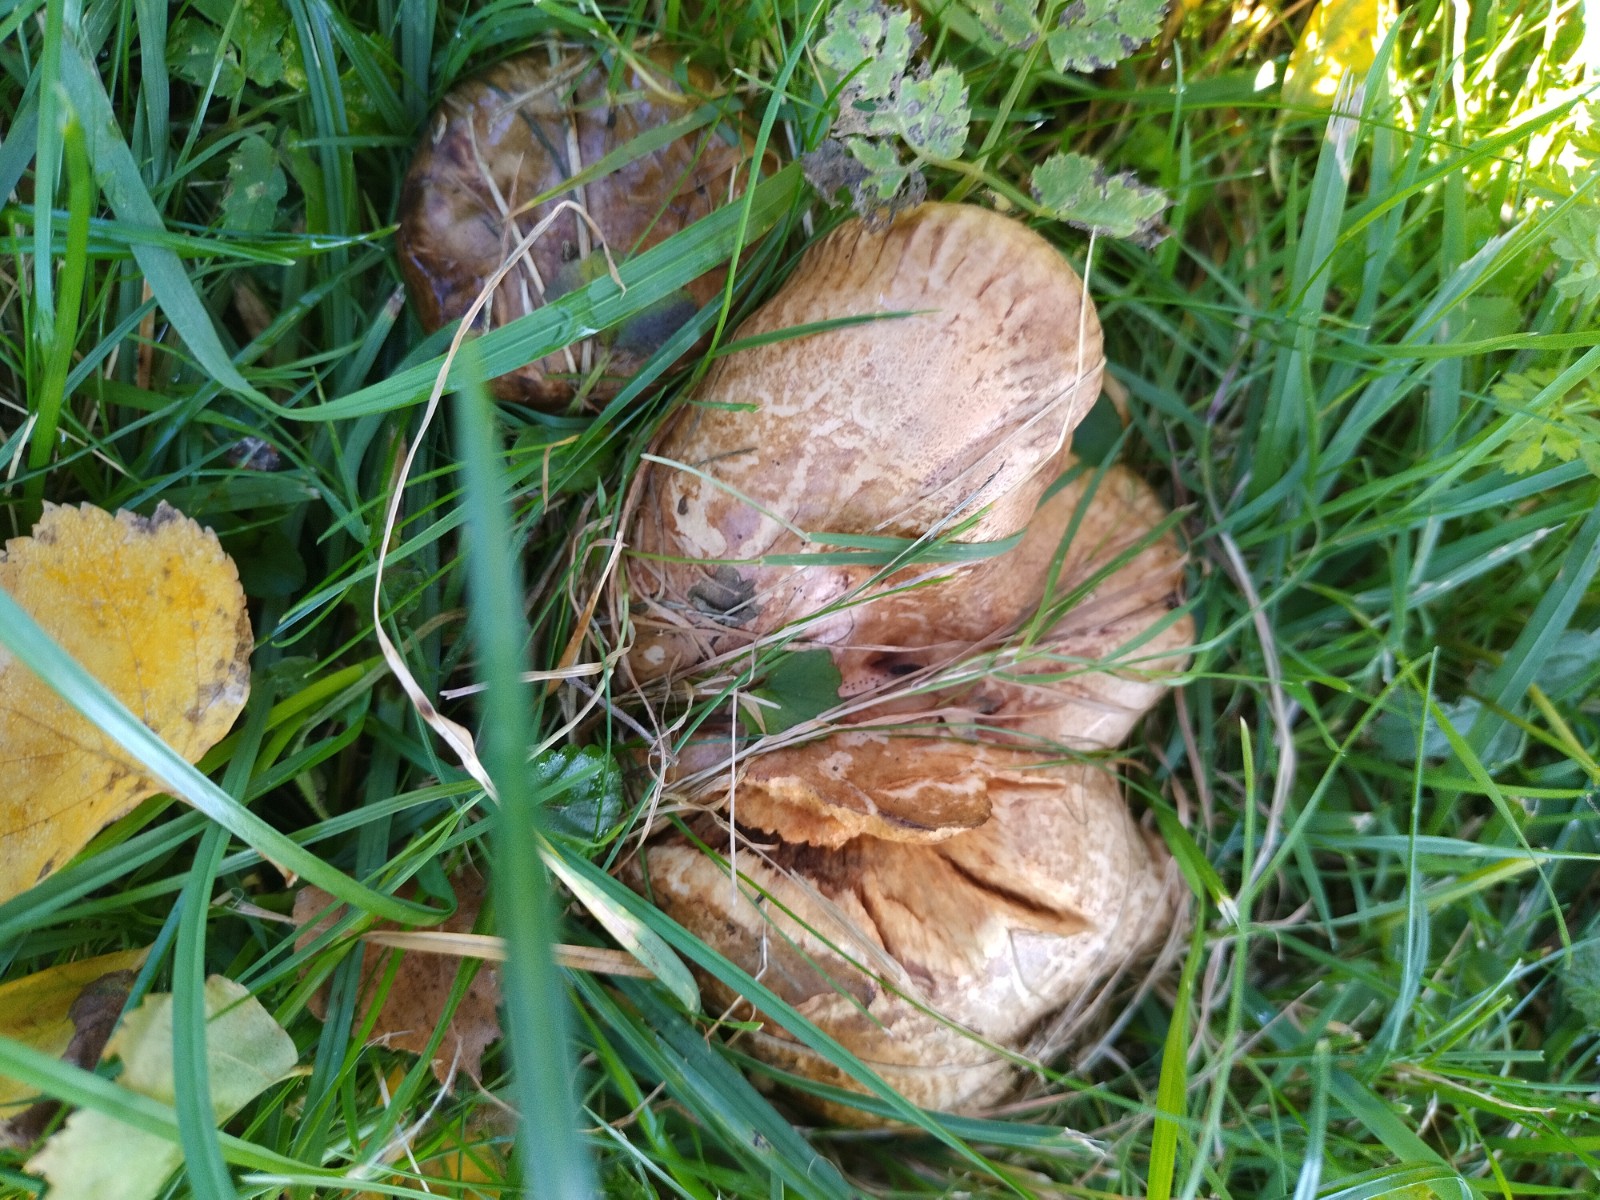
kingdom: Fungi
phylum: Basidiomycota
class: Agaricomycetes
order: Boletales
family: Paxillaceae
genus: Paxillus
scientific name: Paxillus involutus
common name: almindelig netbladhat
